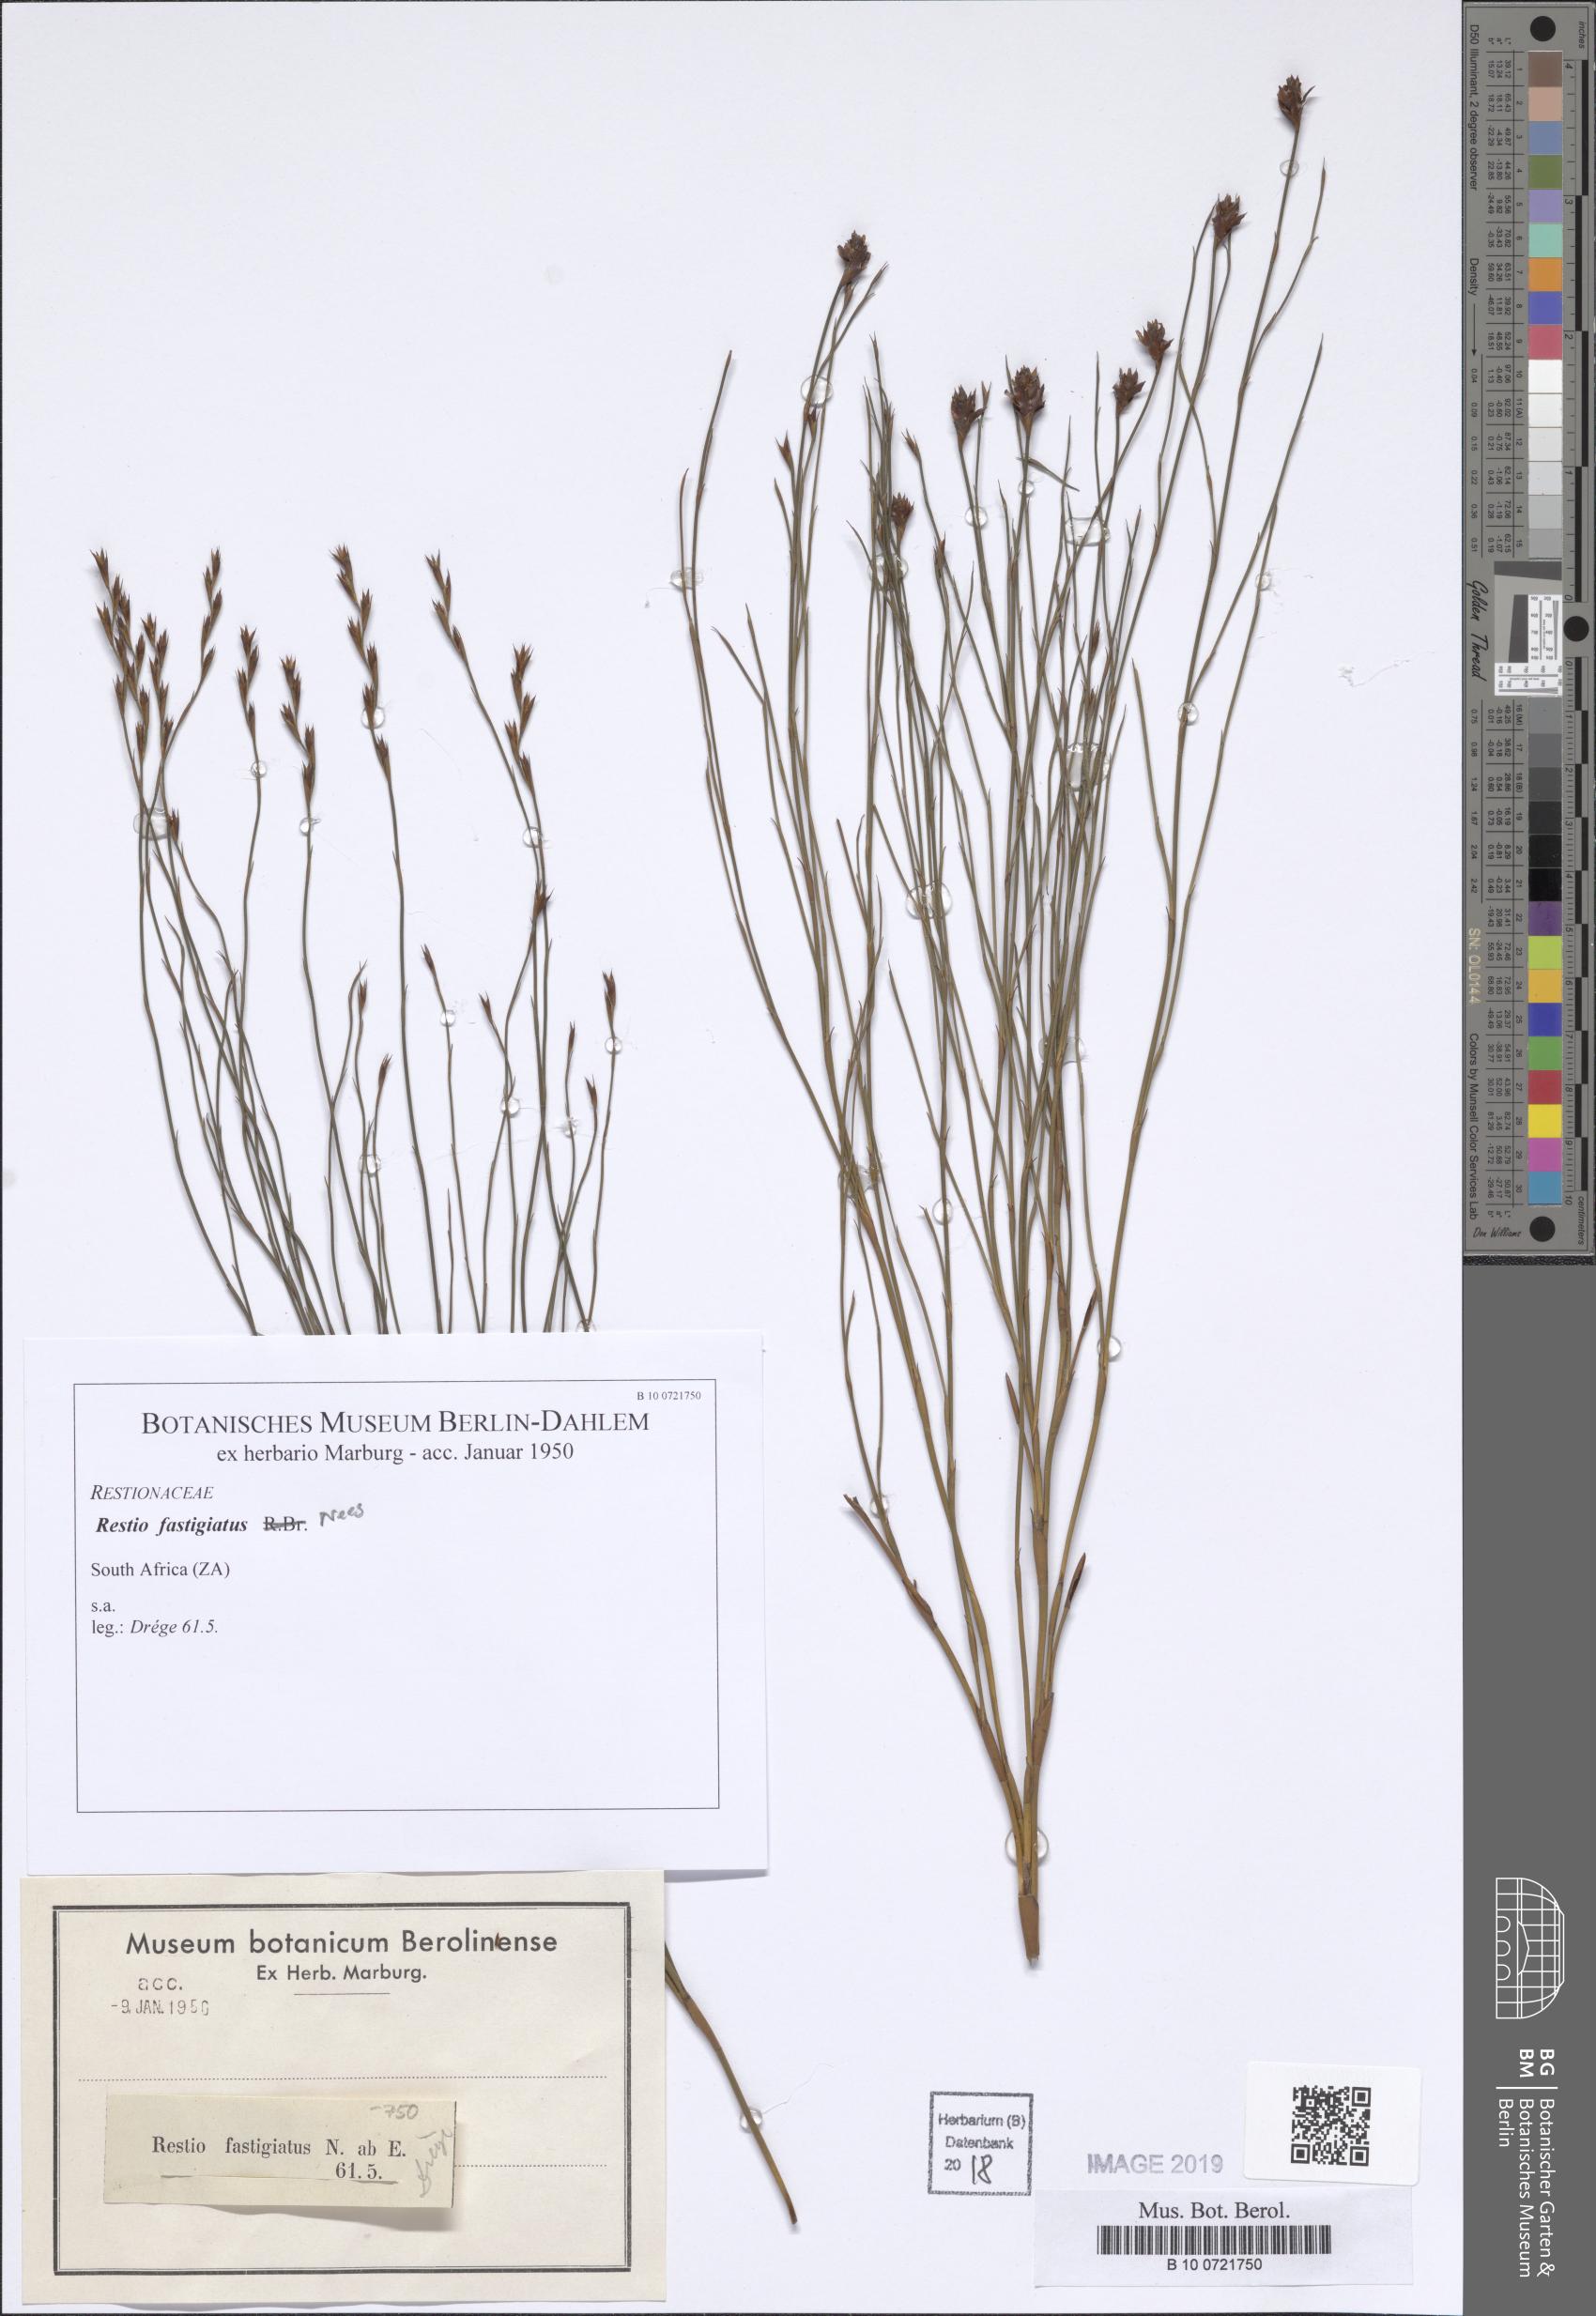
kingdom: Plantae
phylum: Tracheophyta
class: Liliopsida
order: Poales
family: Restionaceae
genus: Chordifex
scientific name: Chordifex fastigiatus
